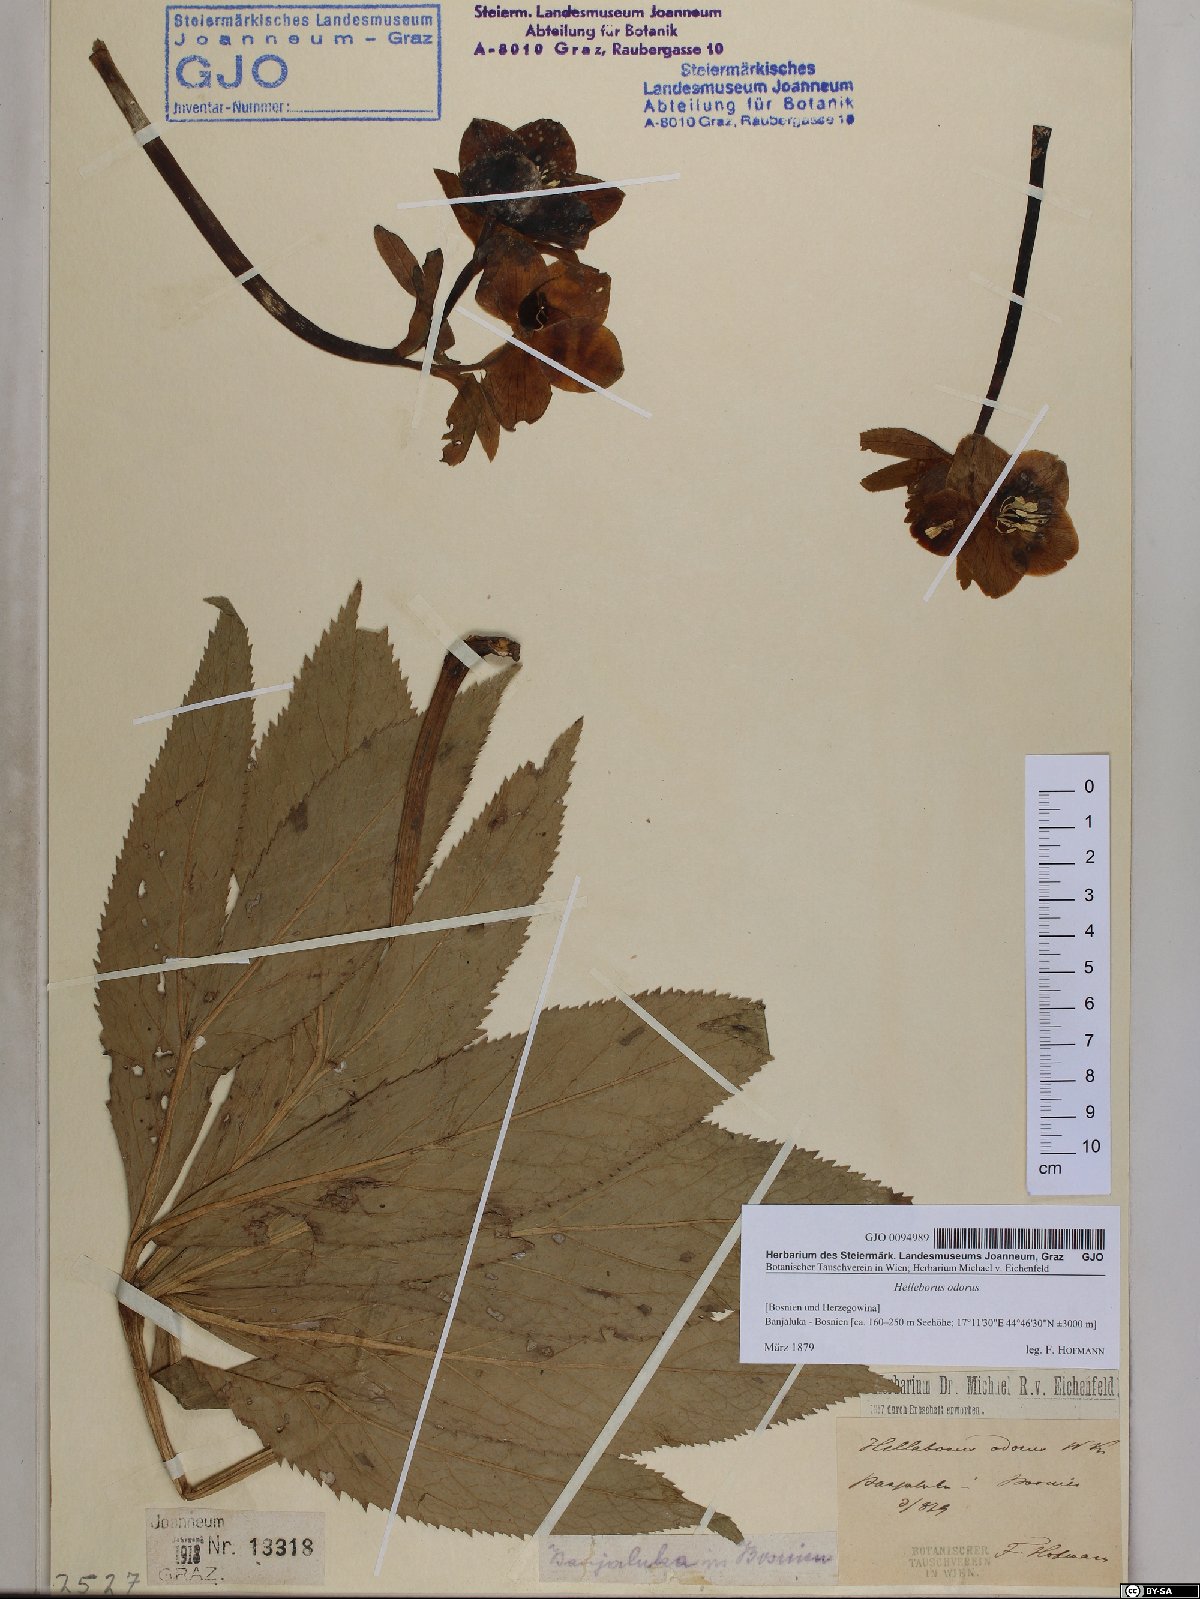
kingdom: Plantae
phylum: Tracheophyta
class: Magnoliopsida
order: Ranunculales
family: Ranunculaceae
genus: Helleborus
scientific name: Helleborus odorus
